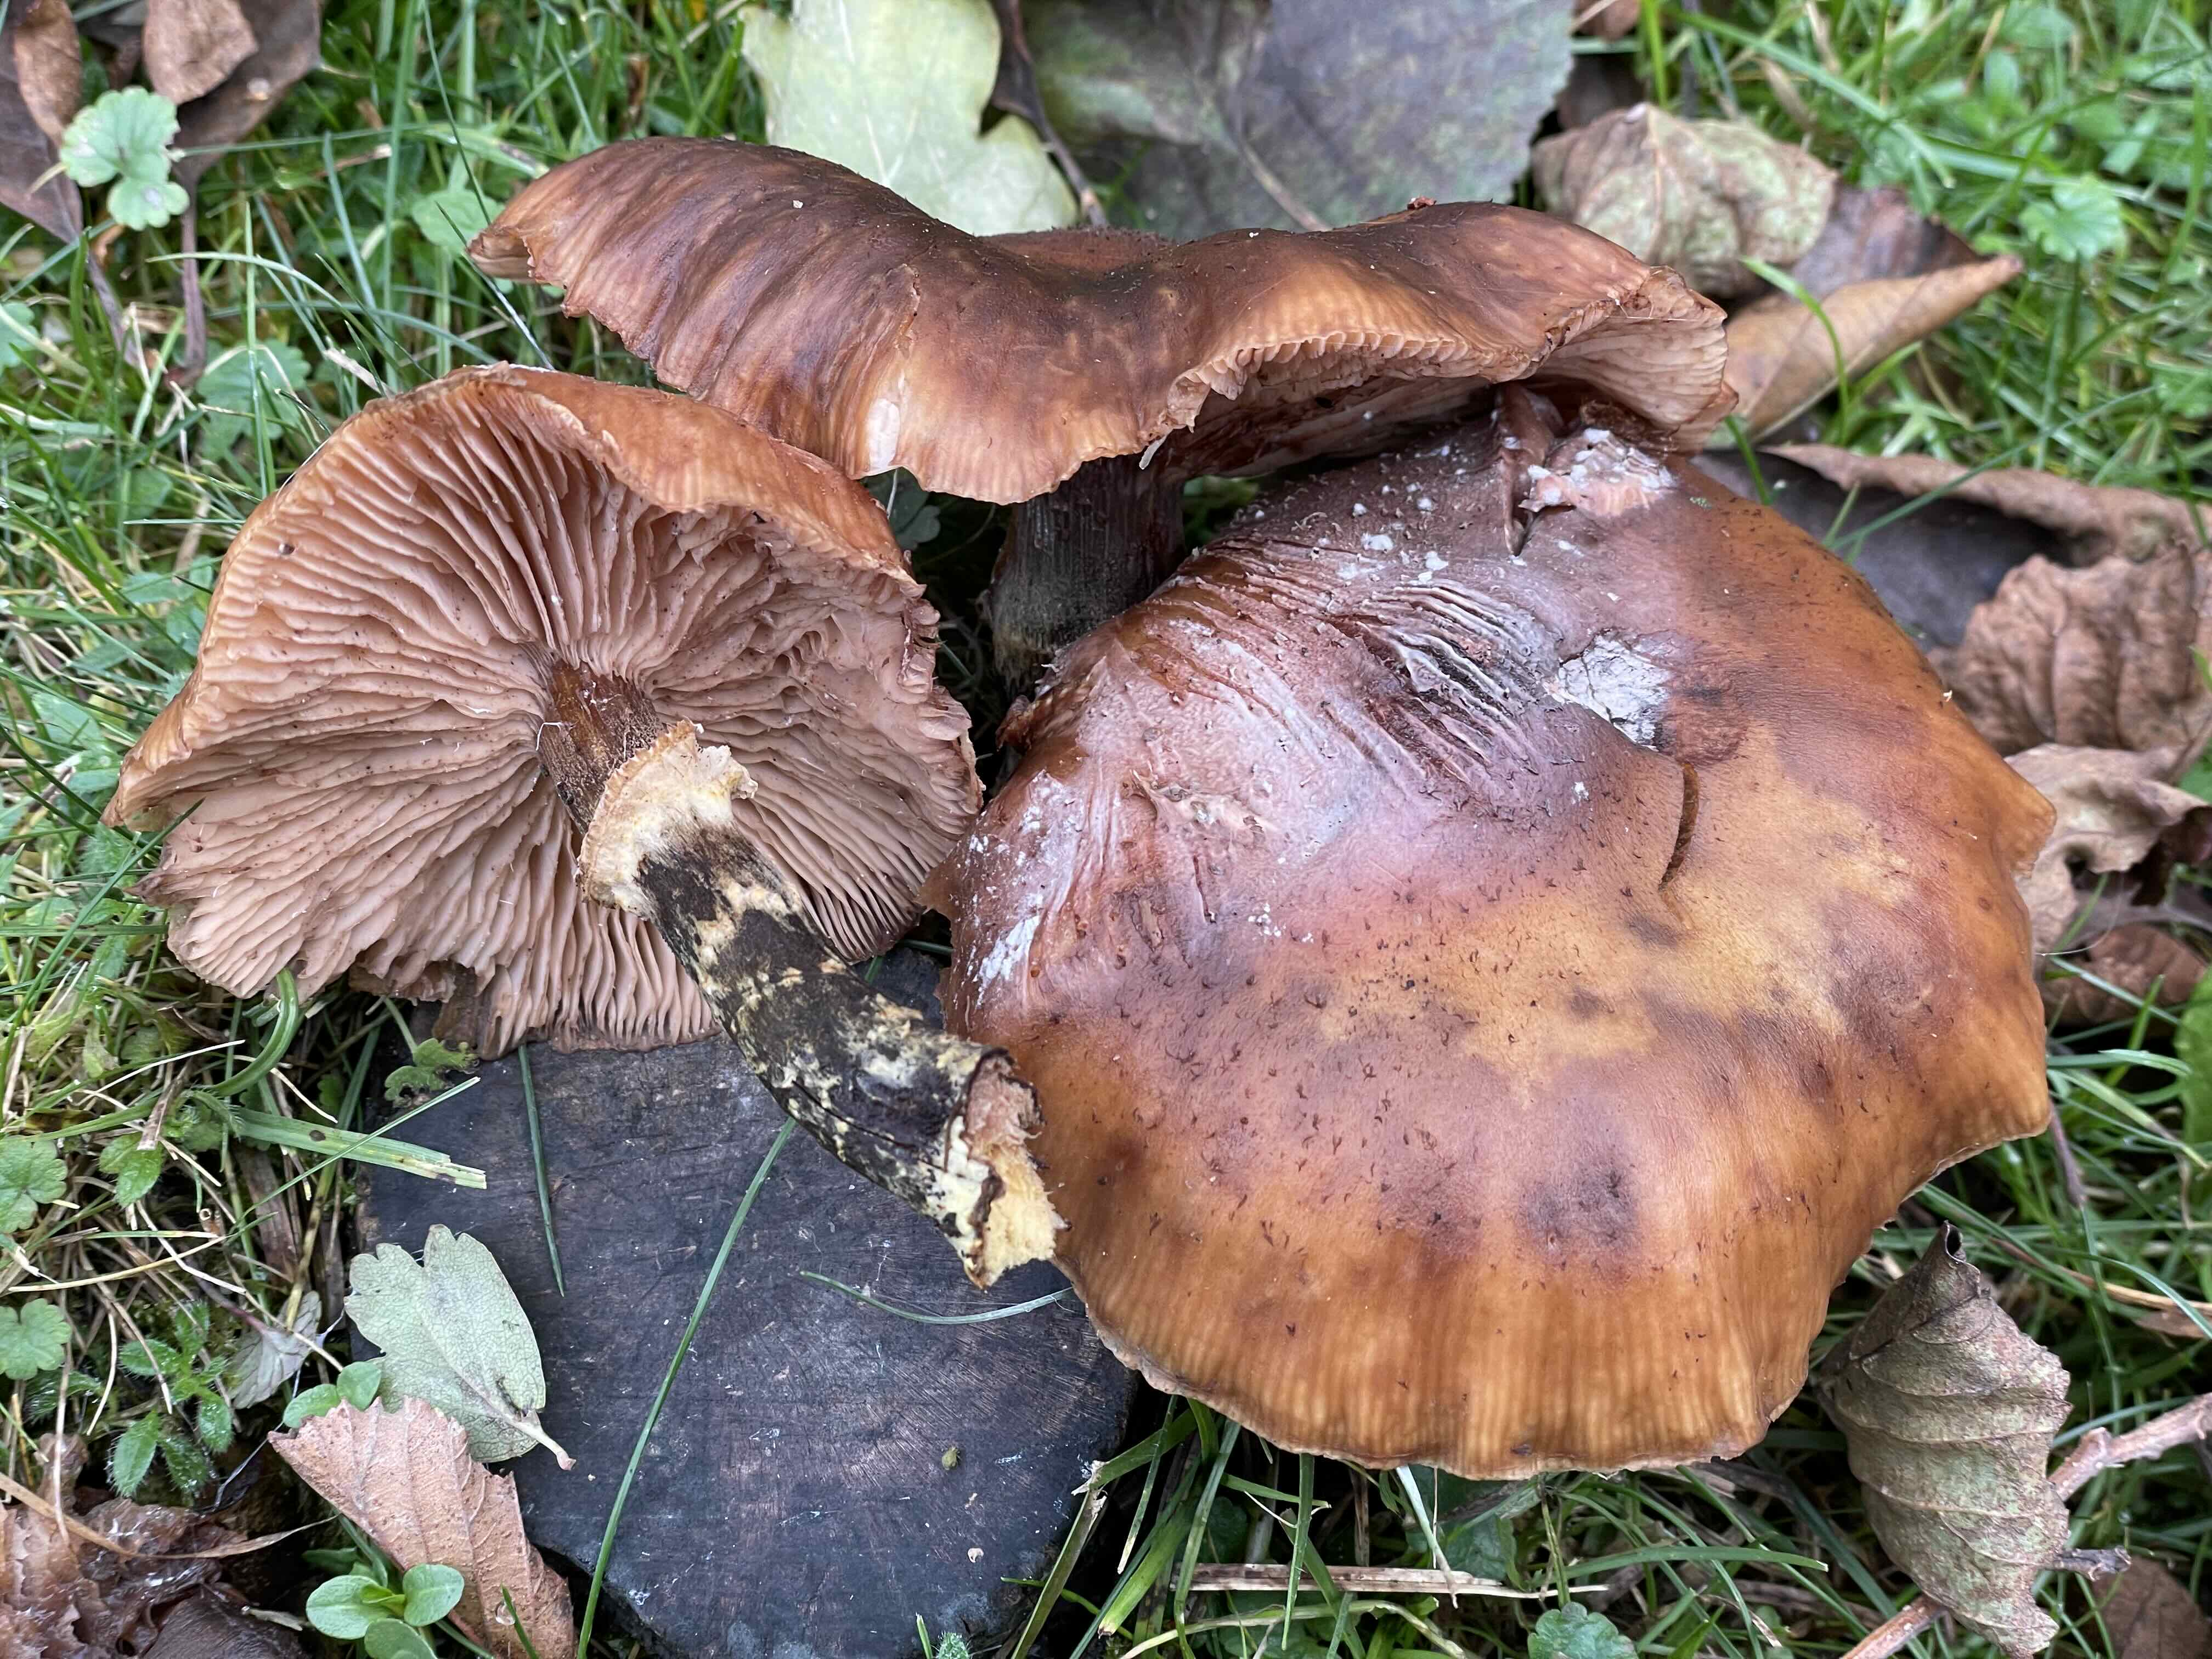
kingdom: Fungi
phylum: Basidiomycota
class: Agaricomycetes
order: Agaricales
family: Physalacriaceae
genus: Armillaria
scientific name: Armillaria ostoyae
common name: mørk honningsvamp
